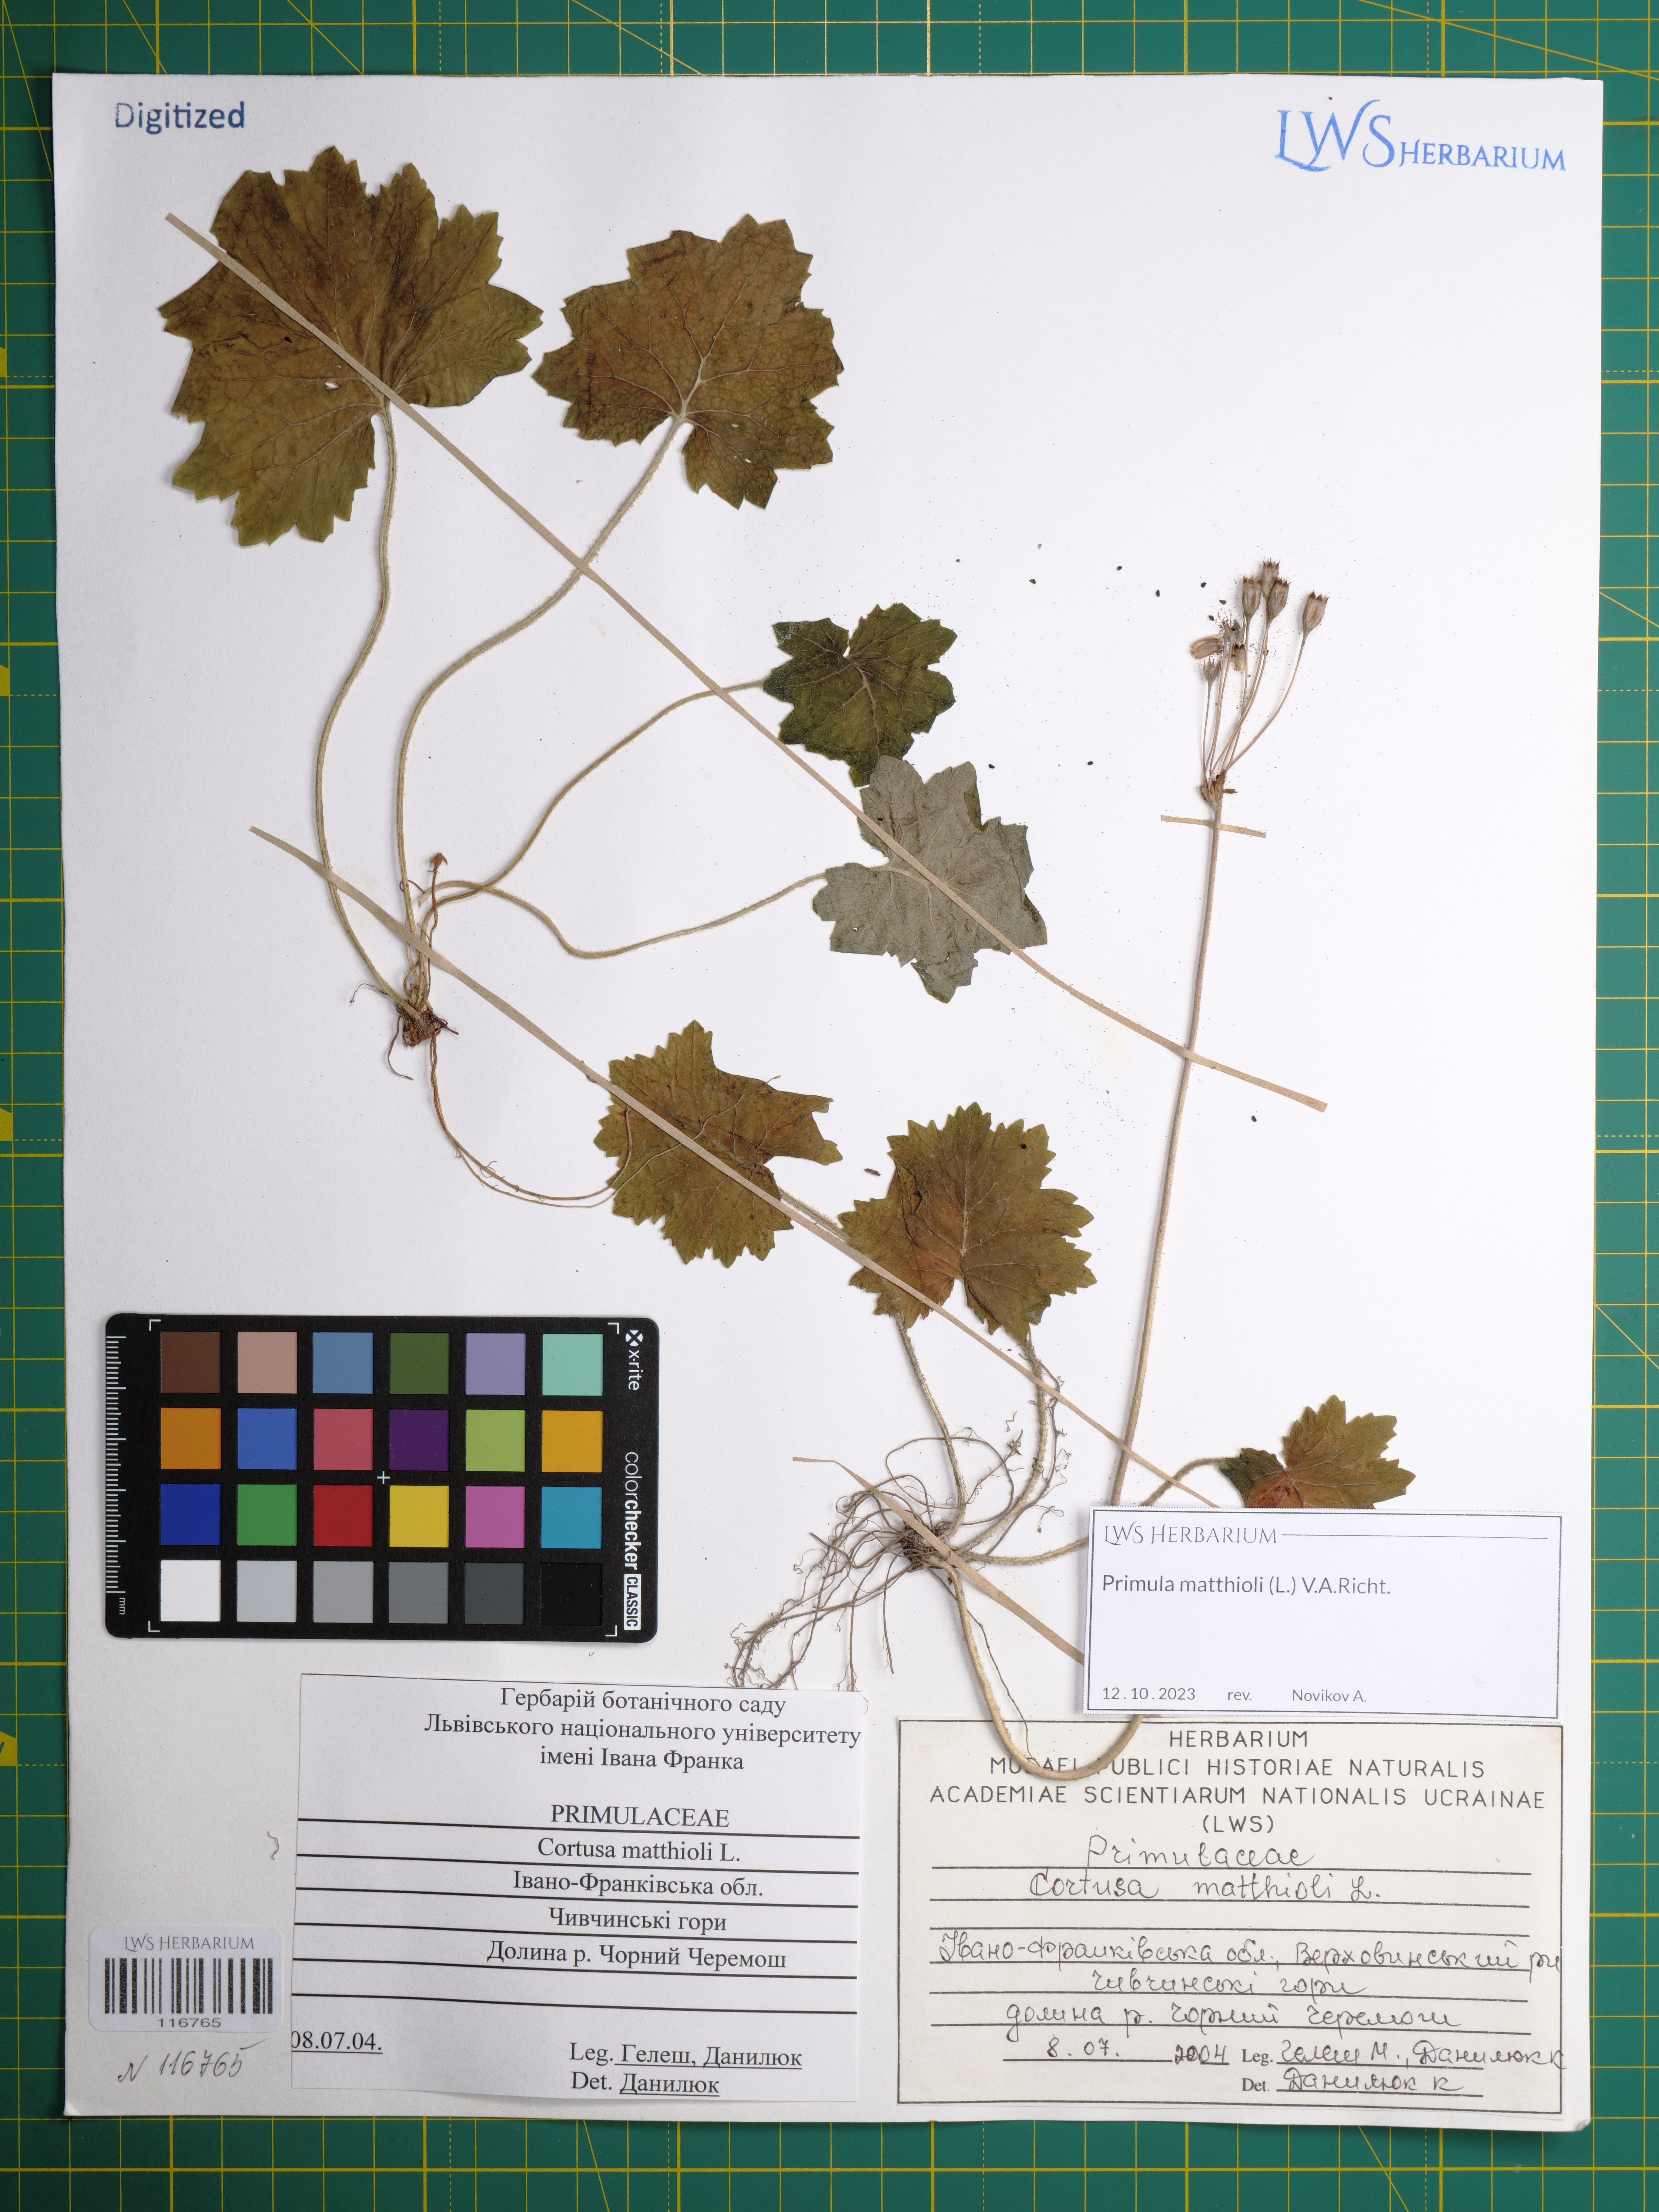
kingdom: Plantae
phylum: Tracheophyta
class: Magnoliopsida
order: Ericales
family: Primulaceae
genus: Primula
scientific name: Primula matthioli
